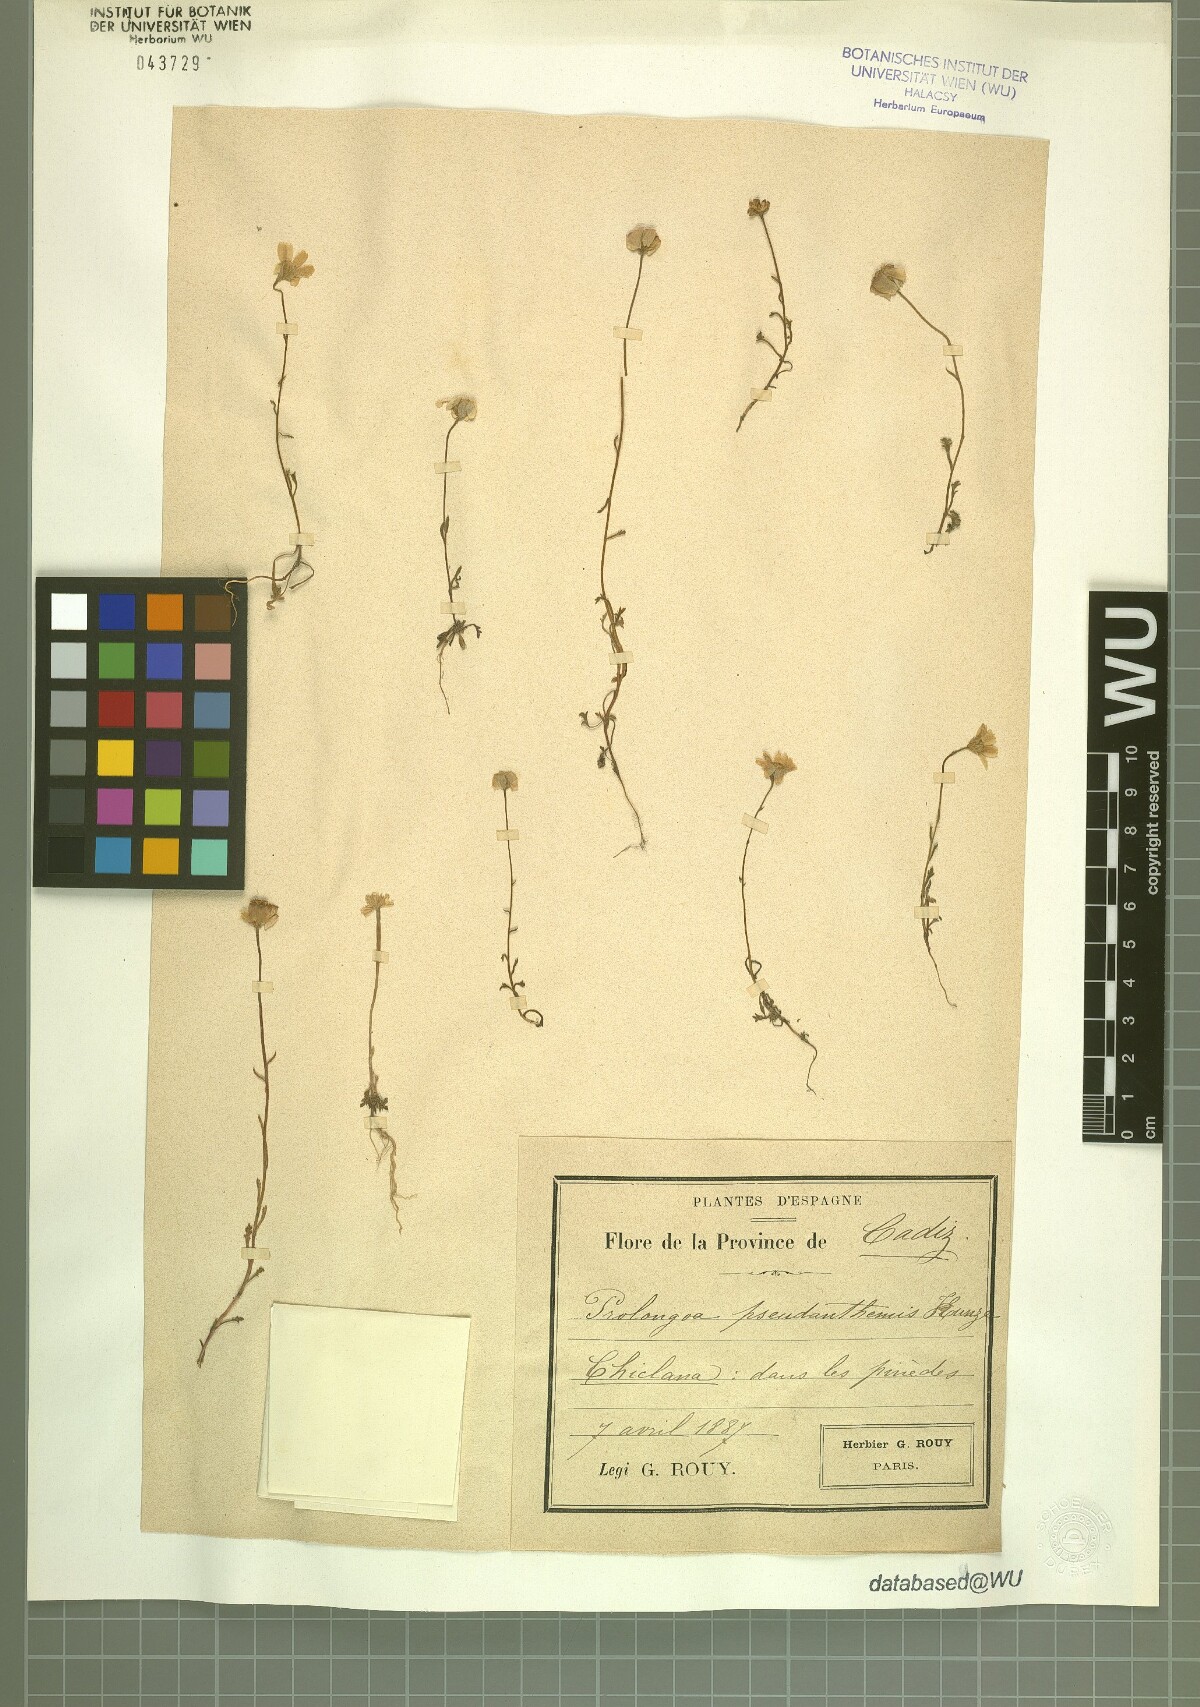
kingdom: Plantae
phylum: Tracheophyta
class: Magnoliopsida
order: Asterales
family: Asteraceae
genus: Prolongoa
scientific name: Prolongoa
